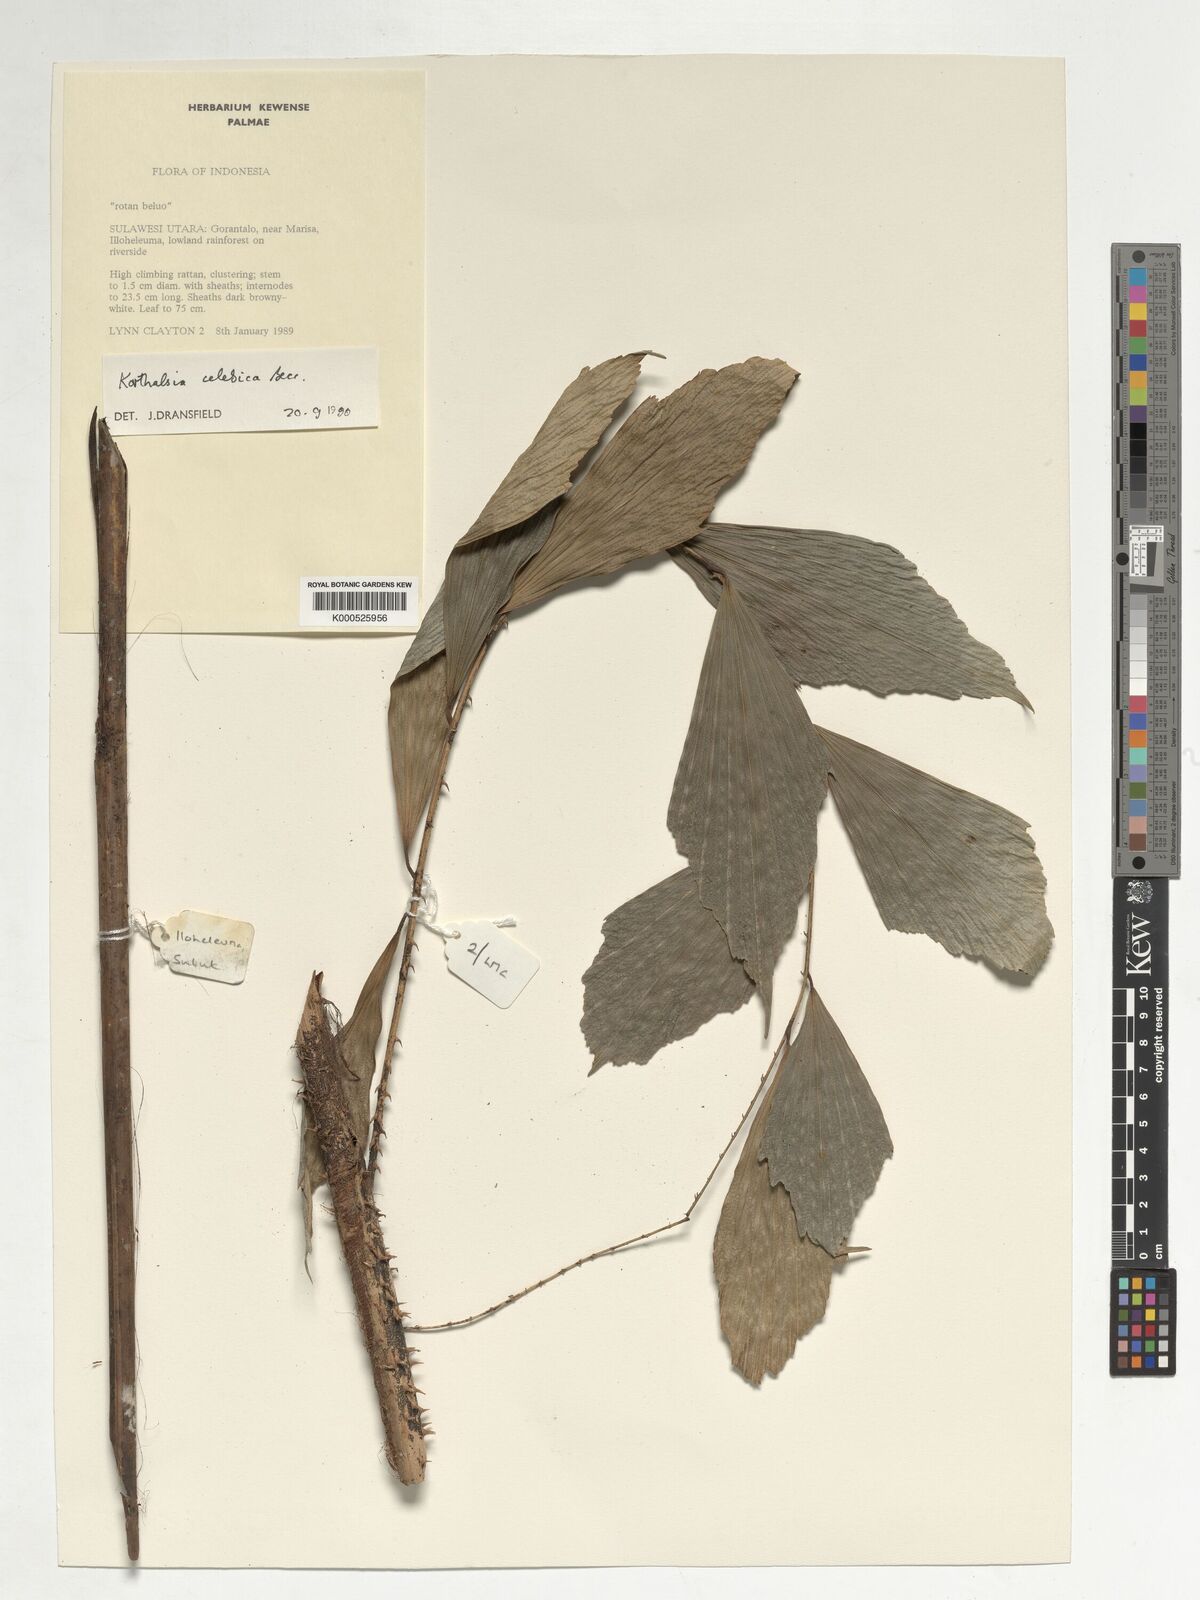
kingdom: Plantae
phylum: Tracheophyta
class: Liliopsida
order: Arecales
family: Arecaceae
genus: Korthalsia
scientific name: Korthalsia celebica
